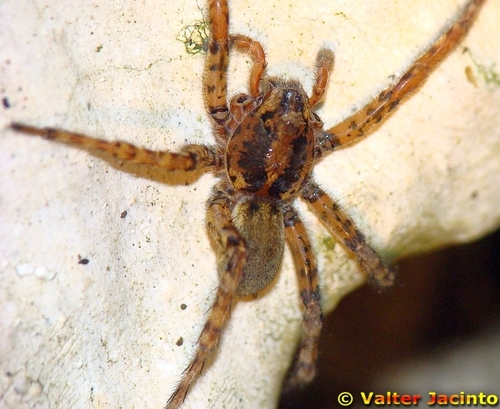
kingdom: Animalia
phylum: Arthropoda
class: Arachnida
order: Araneae
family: Lycosidae
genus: Arctosa
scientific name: Arctosa villica
